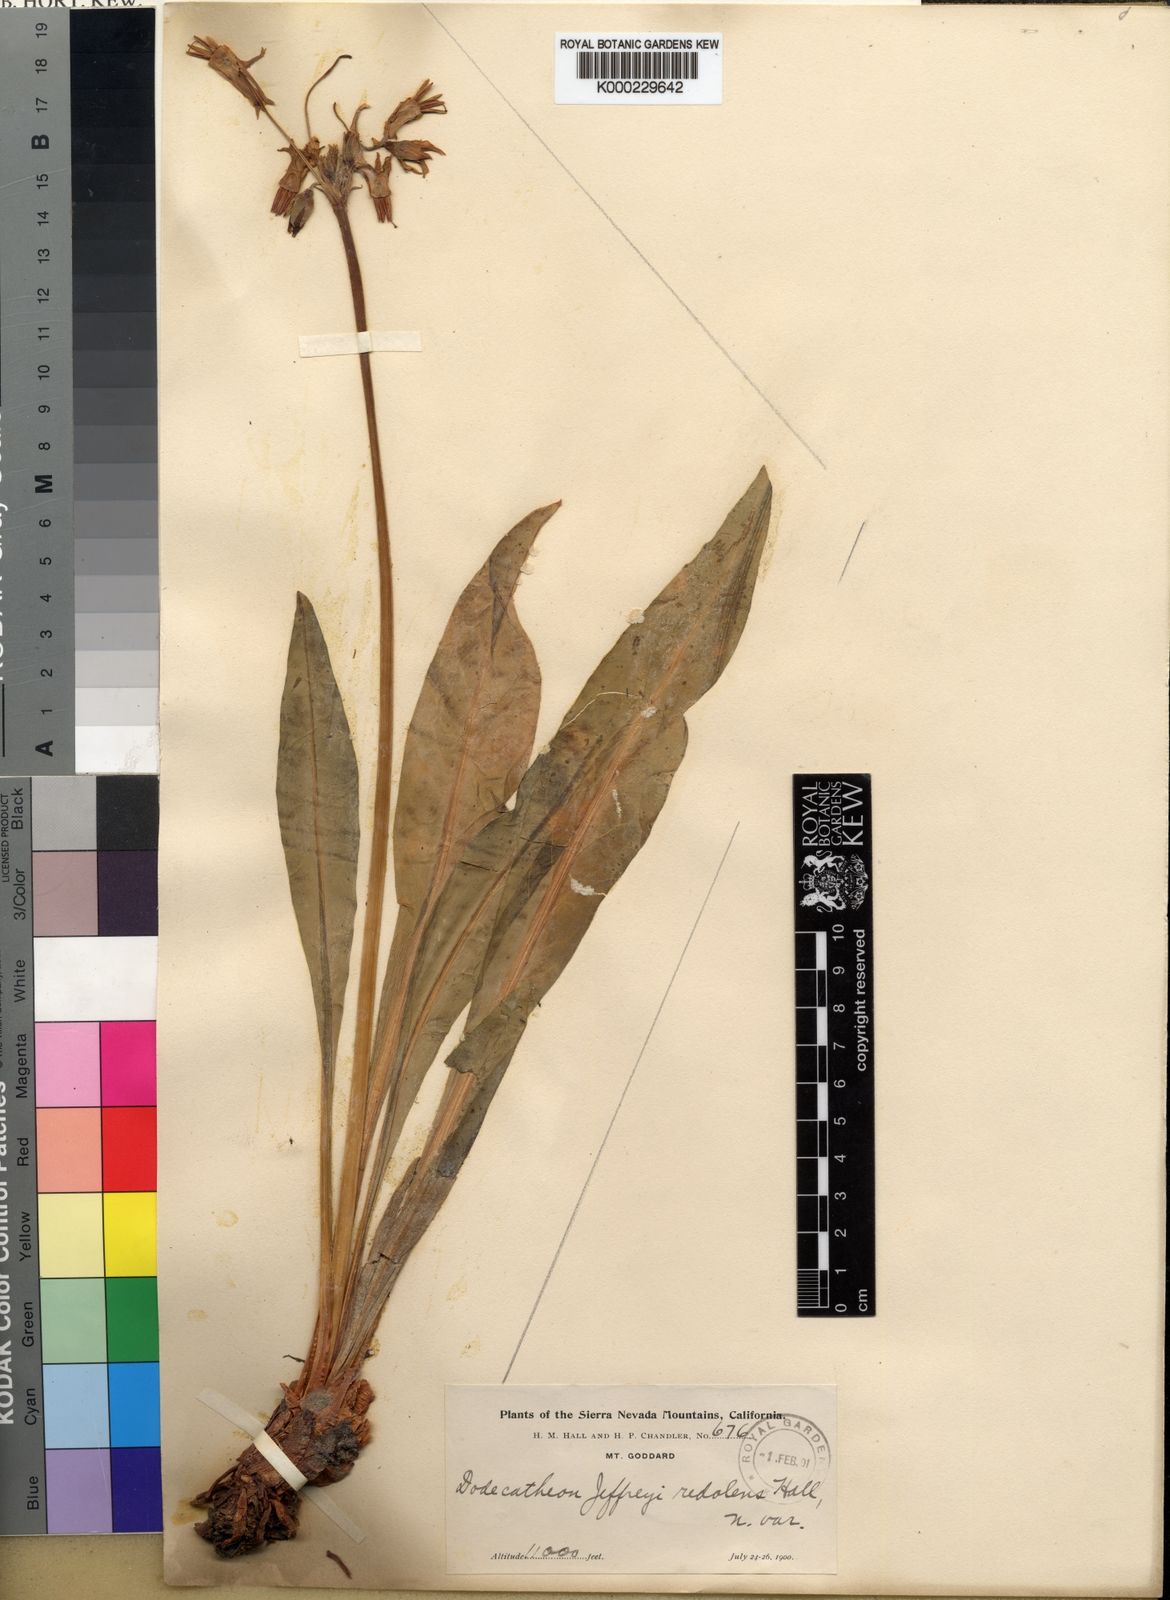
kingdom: Plantae
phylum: Tracheophyta
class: Magnoliopsida
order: Ericales
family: Primulaceae
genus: Dodecatheon
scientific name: Dodecatheon redolens
